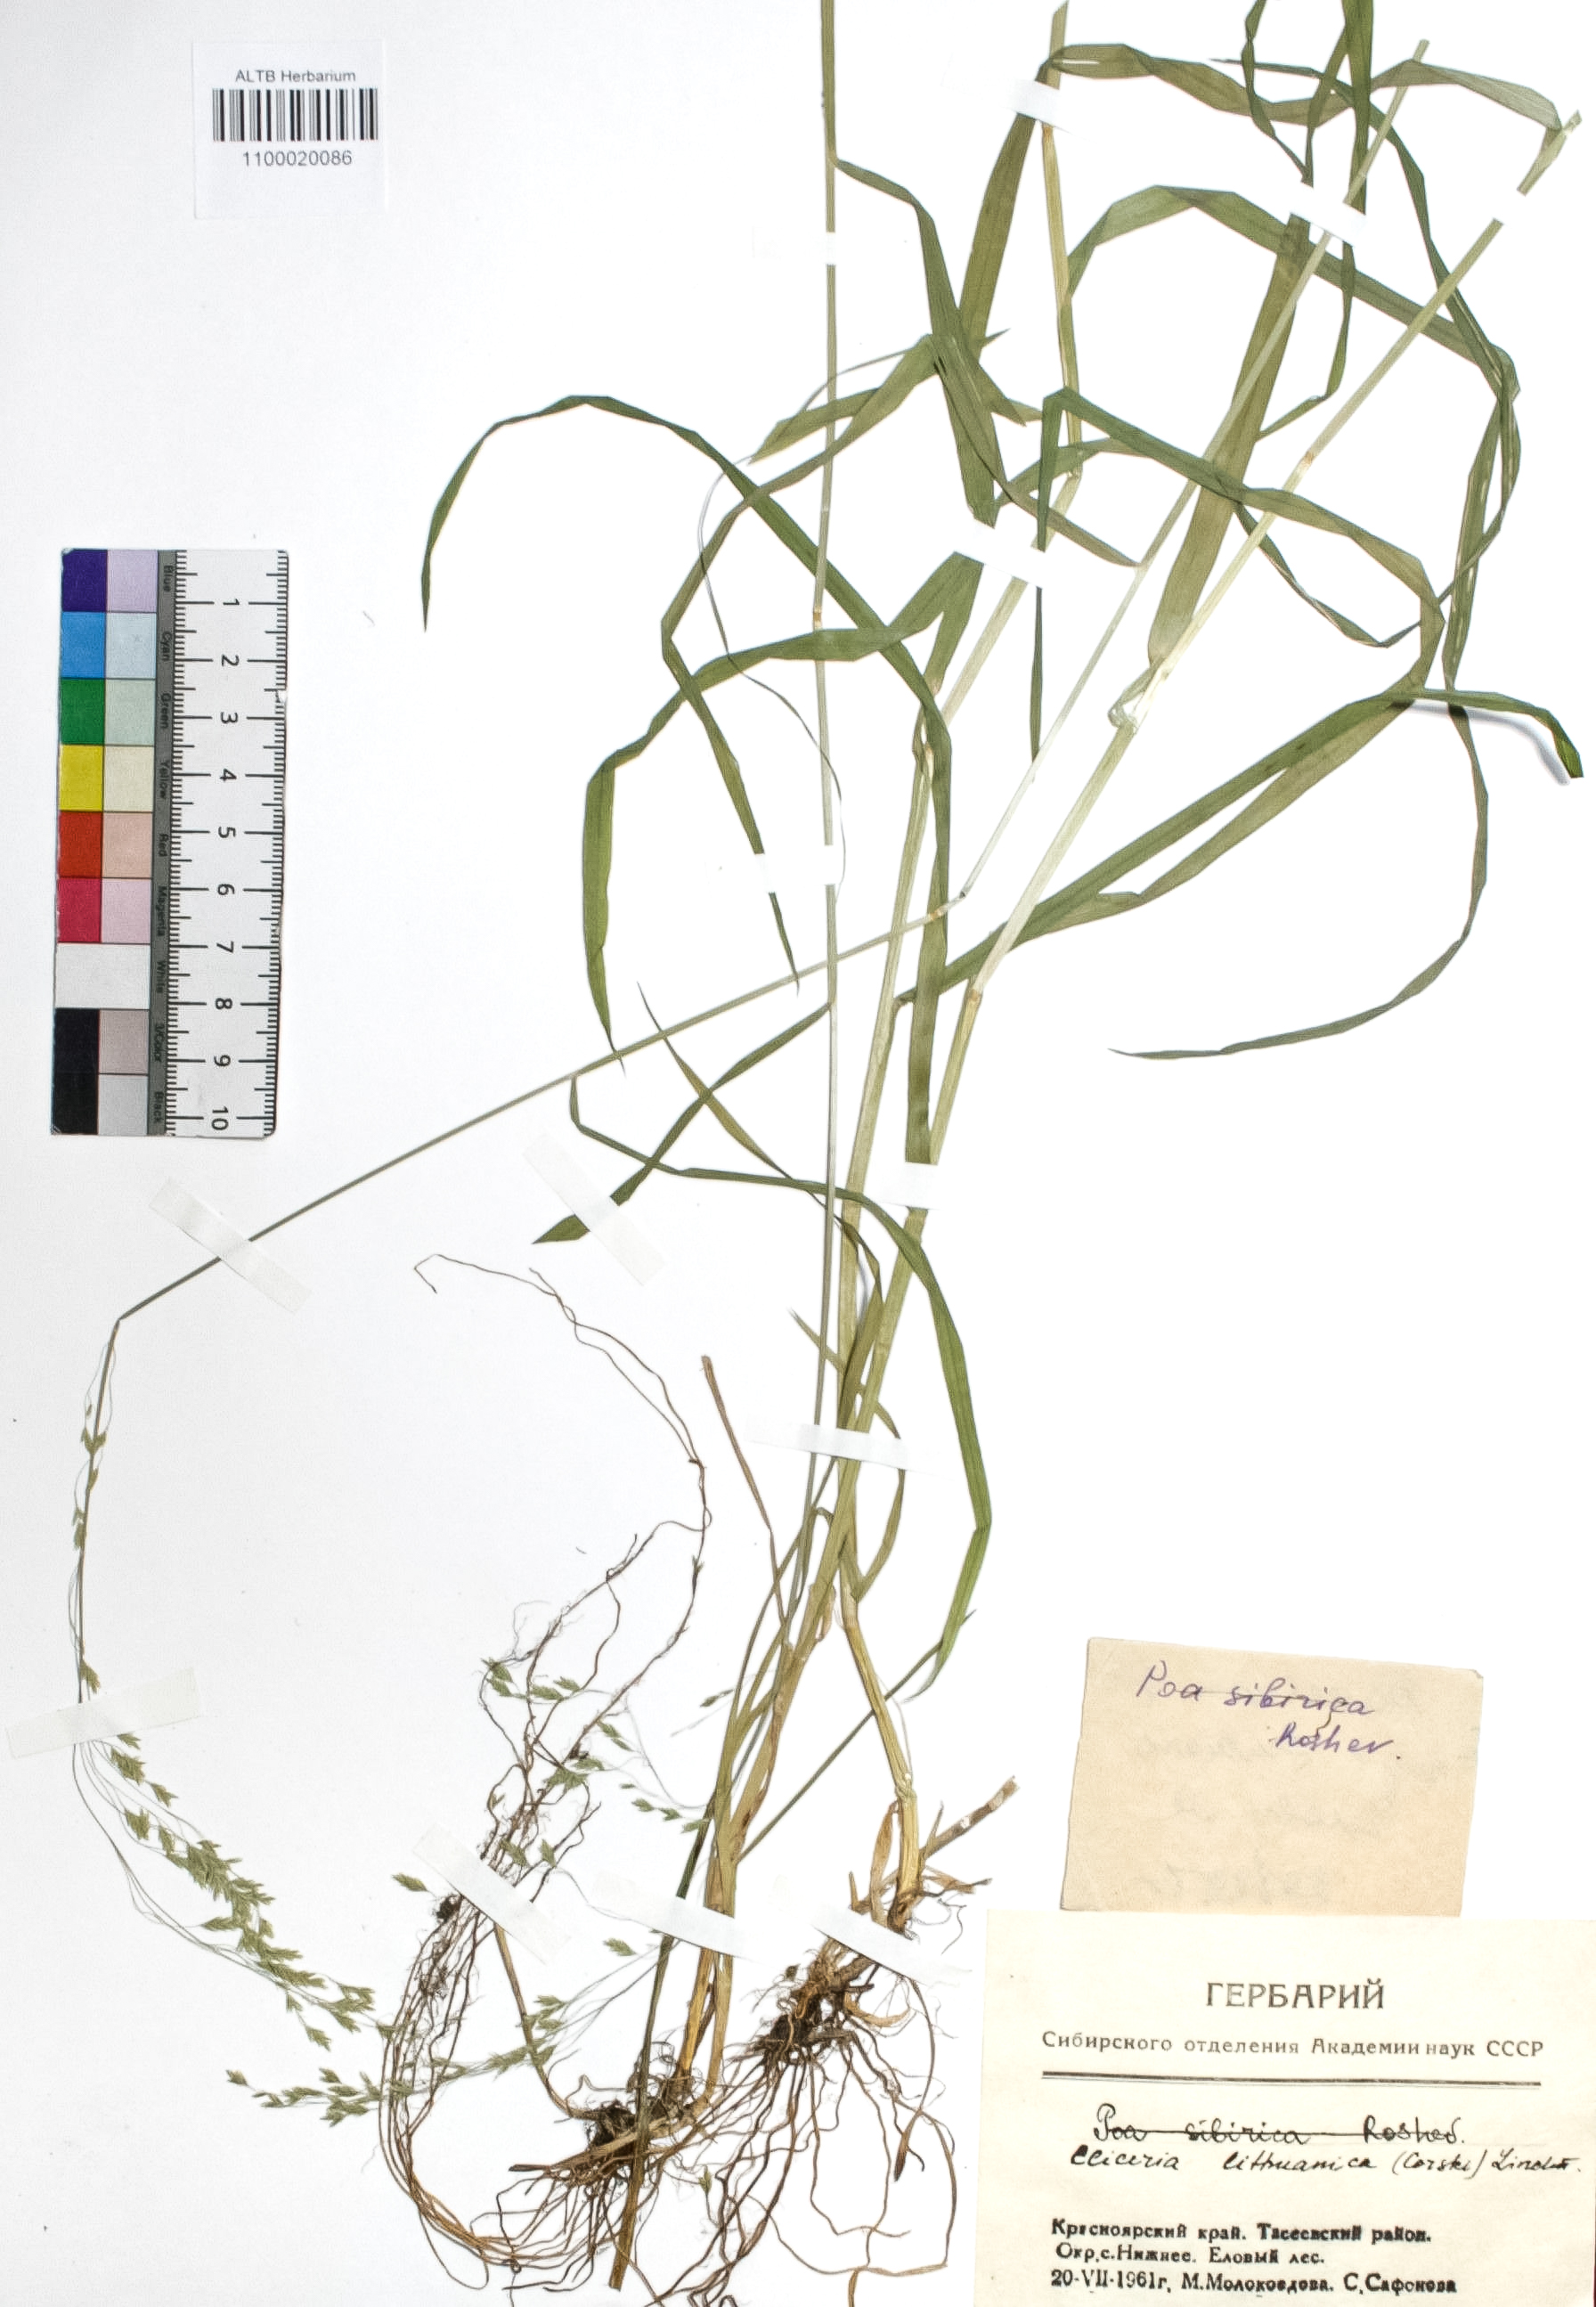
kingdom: Plantae
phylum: Tracheophyta
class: Liliopsida
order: Poales
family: Poaceae
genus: Glyceria
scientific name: Glyceria lithuanica
